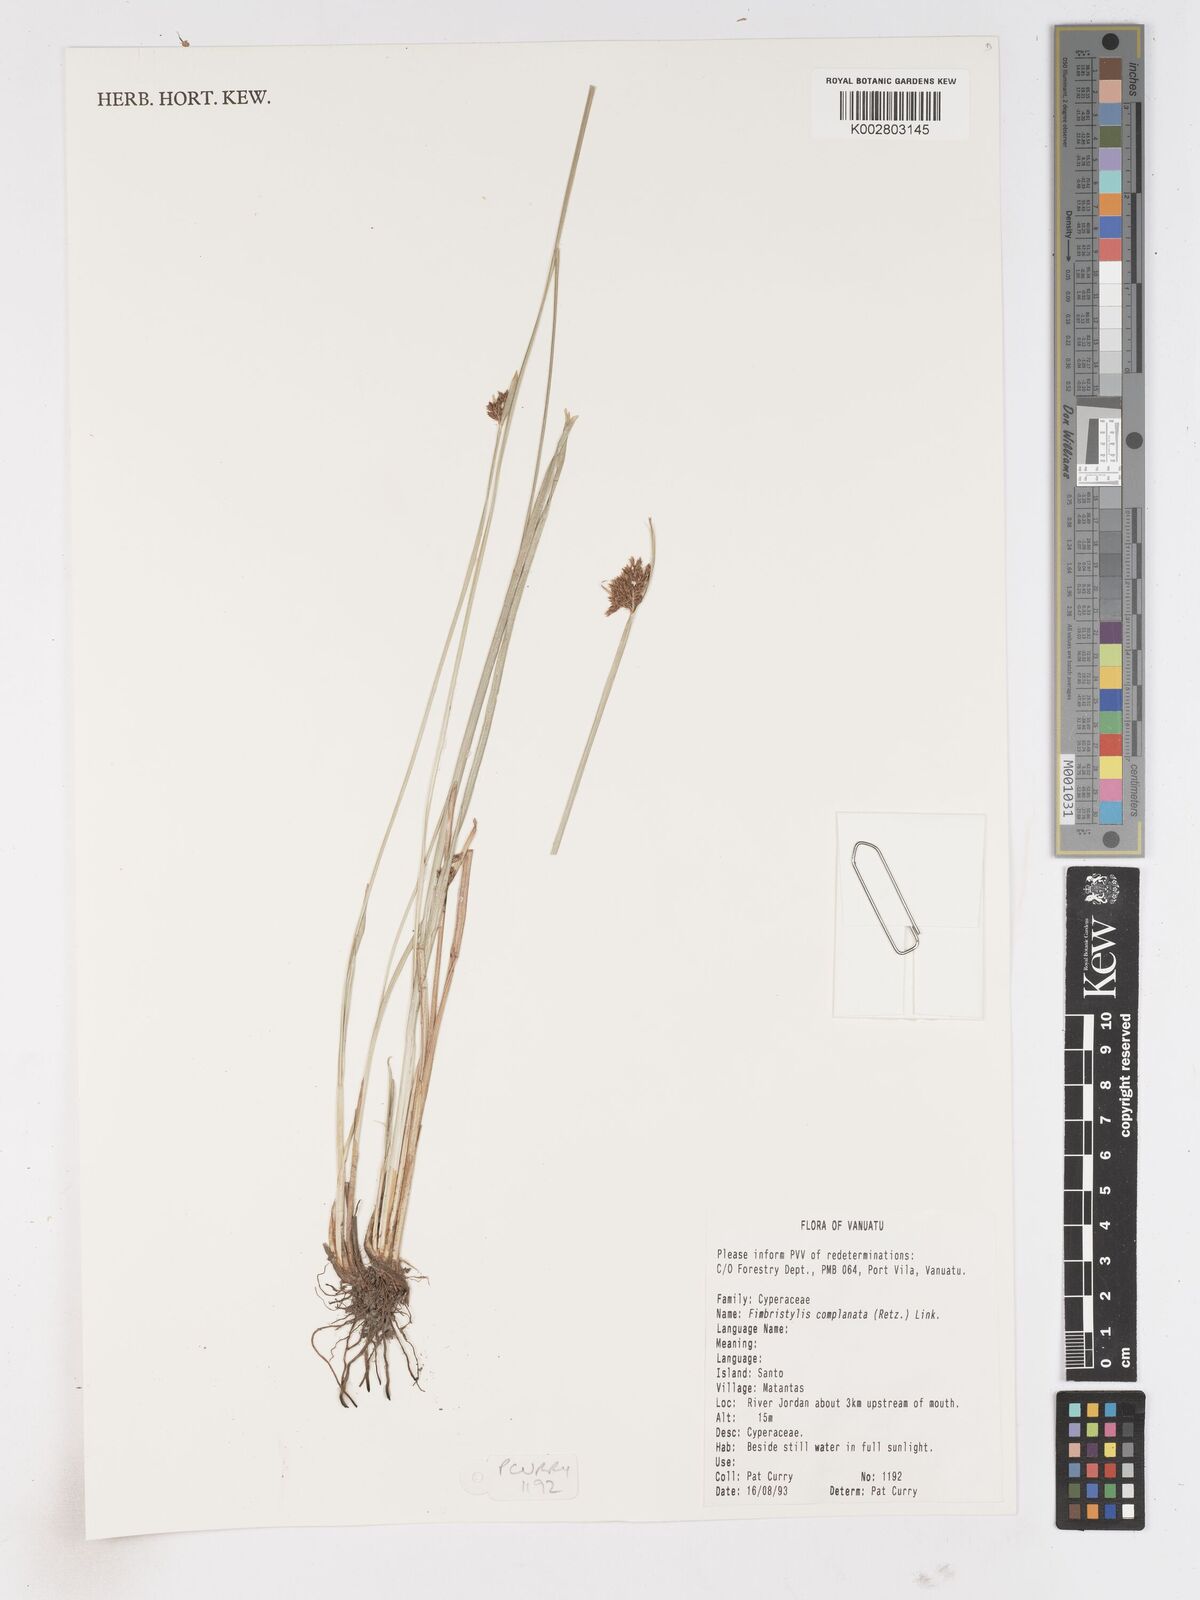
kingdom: Plantae
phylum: Tracheophyta
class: Liliopsida
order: Poales
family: Cyperaceae
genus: Fimbristylis
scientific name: Fimbristylis complanata
